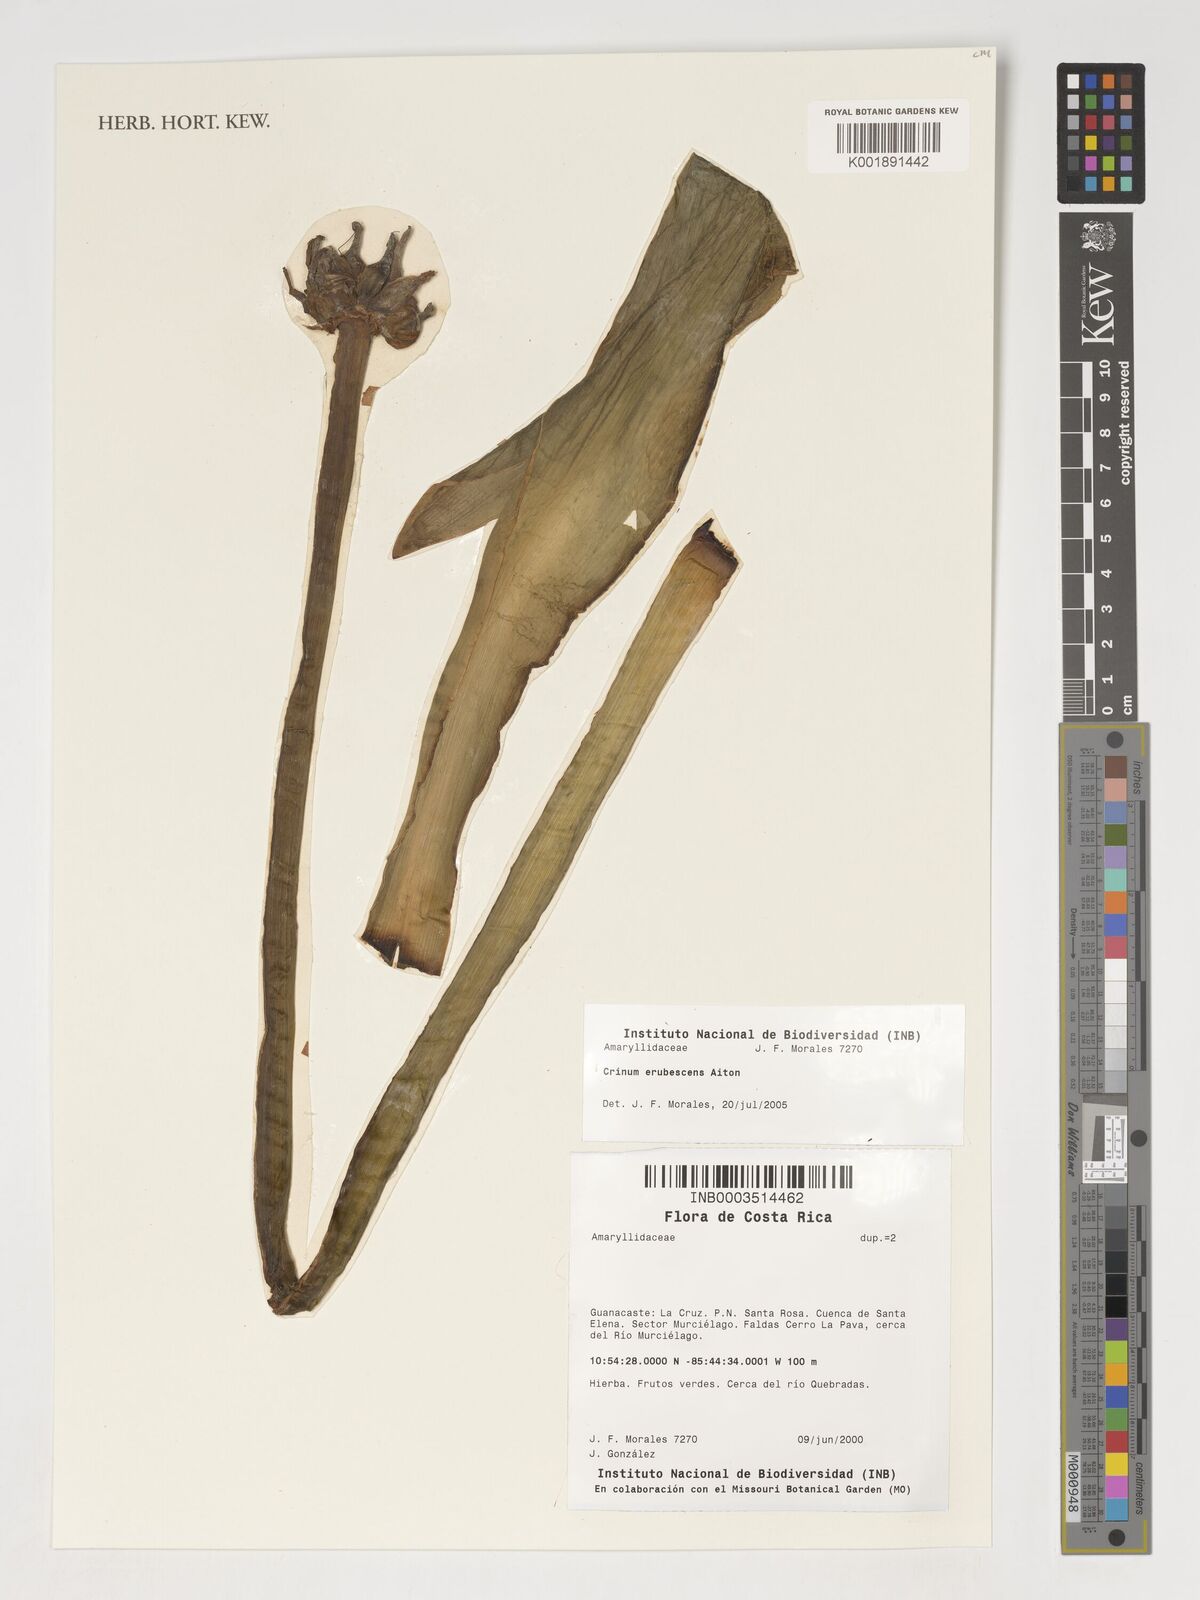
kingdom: Plantae
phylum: Tracheophyta
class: Liliopsida
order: Asparagales
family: Amaryllidaceae
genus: Crinum
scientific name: Crinum erubescens
